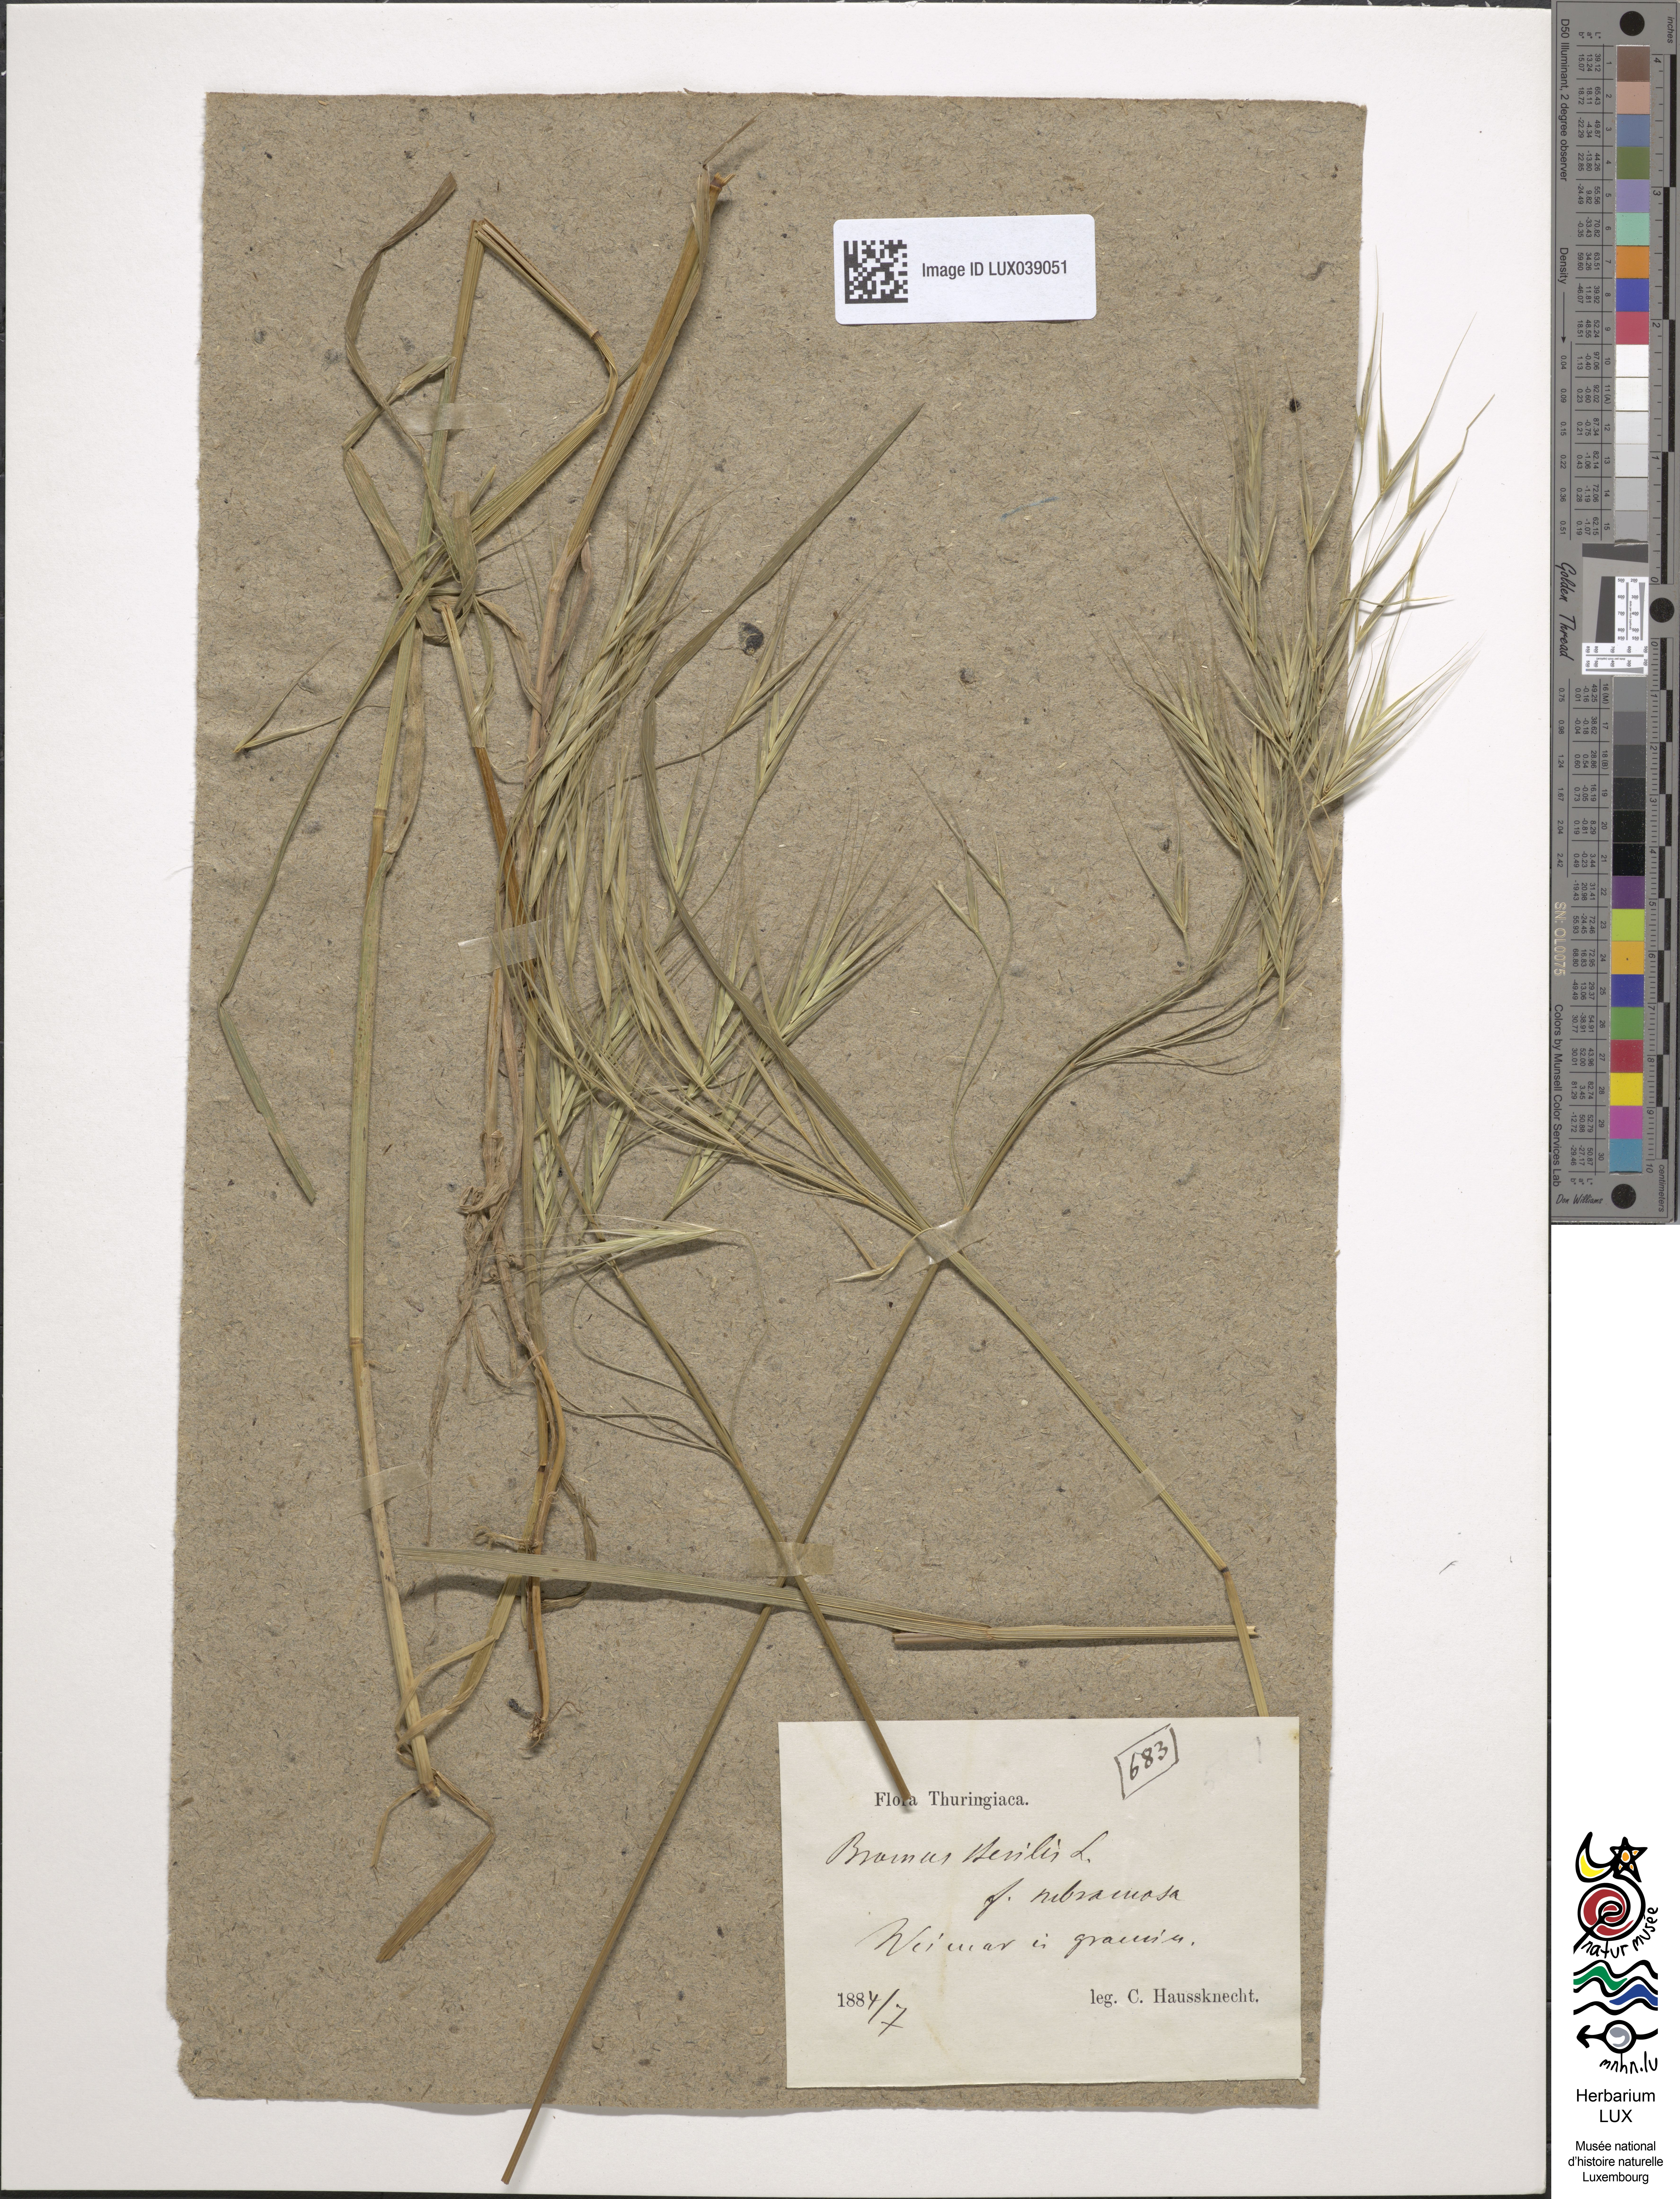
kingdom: Plantae
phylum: Tracheophyta
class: Liliopsida
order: Poales
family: Poaceae
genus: Bromus
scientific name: Bromus sterilis
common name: Poverty brome
